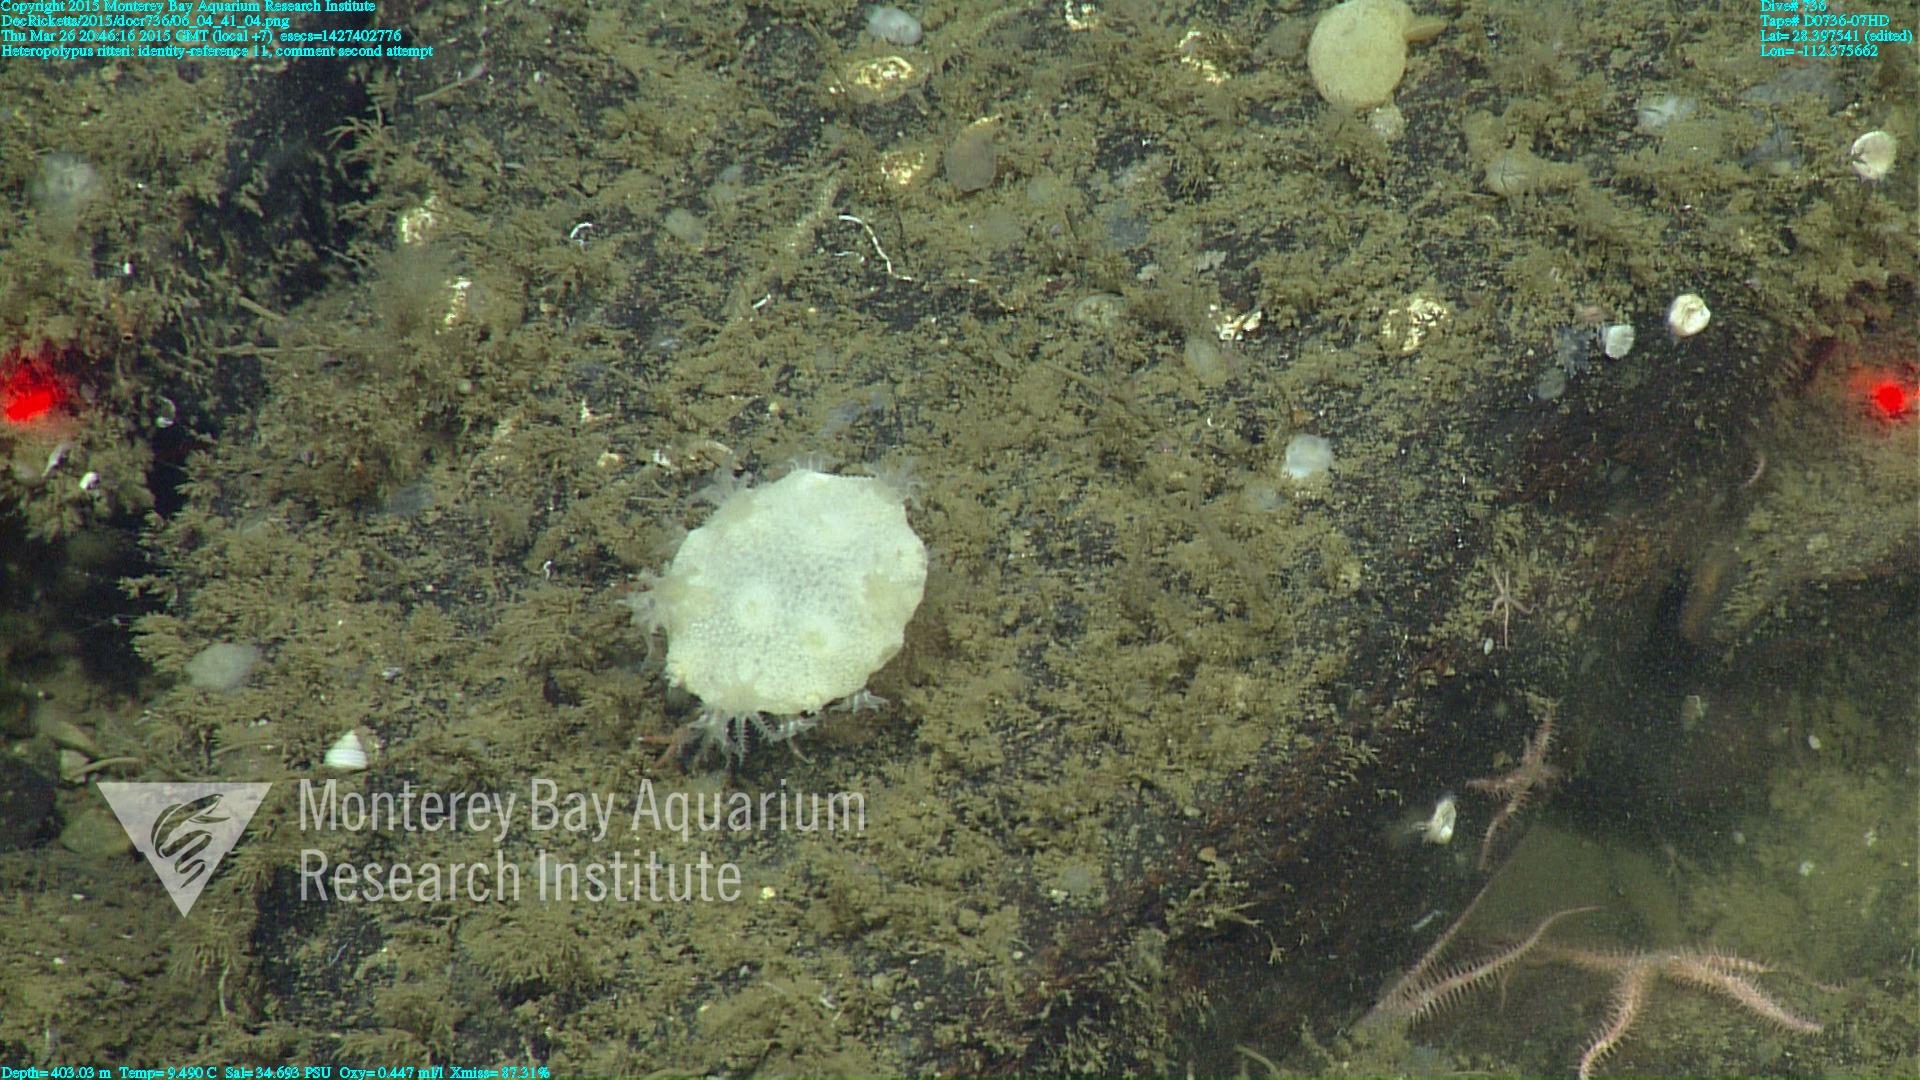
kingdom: Animalia
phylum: Cnidaria
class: Anthozoa
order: Scleralcyonacea
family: Coralliidae
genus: Heteropolypus
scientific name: Heteropolypus ritteri
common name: Ritter's soft coral
